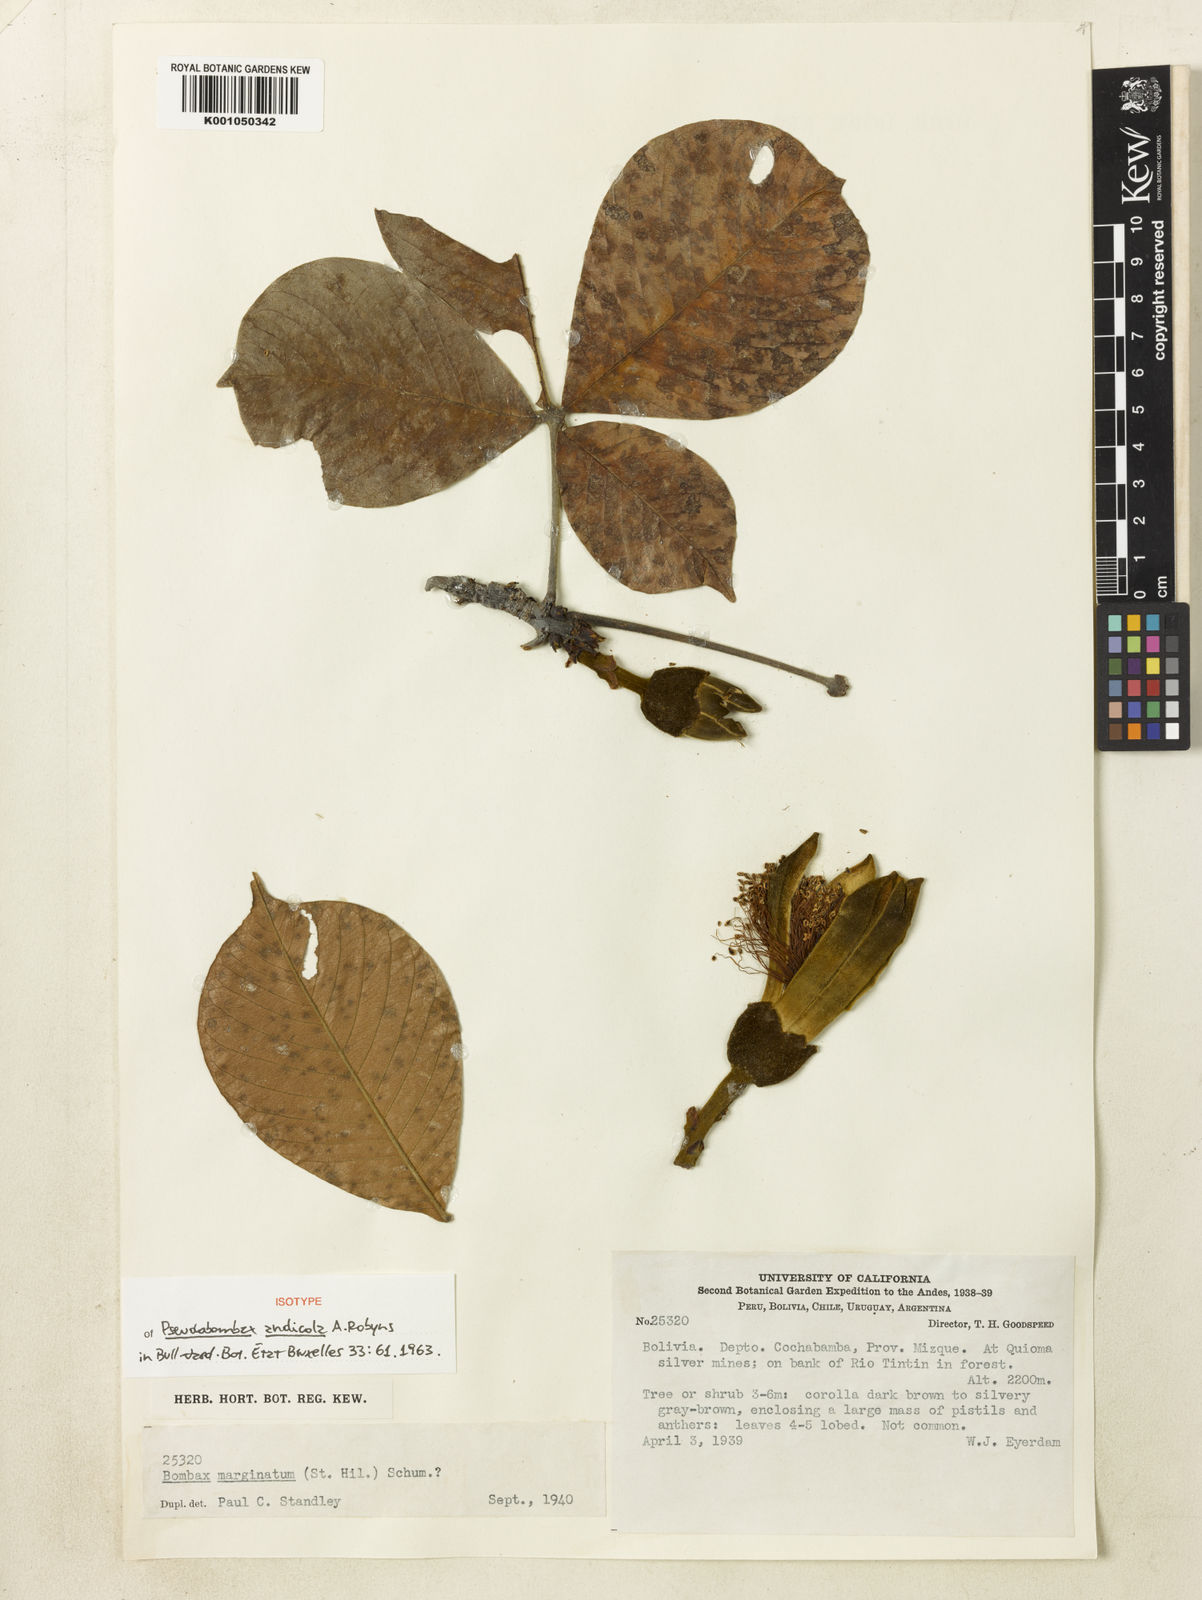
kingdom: Plantae
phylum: Tracheophyta
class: Magnoliopsida
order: Malvales
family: Malvaceae
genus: Pseudobombax
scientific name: Pseudobombax andicola
